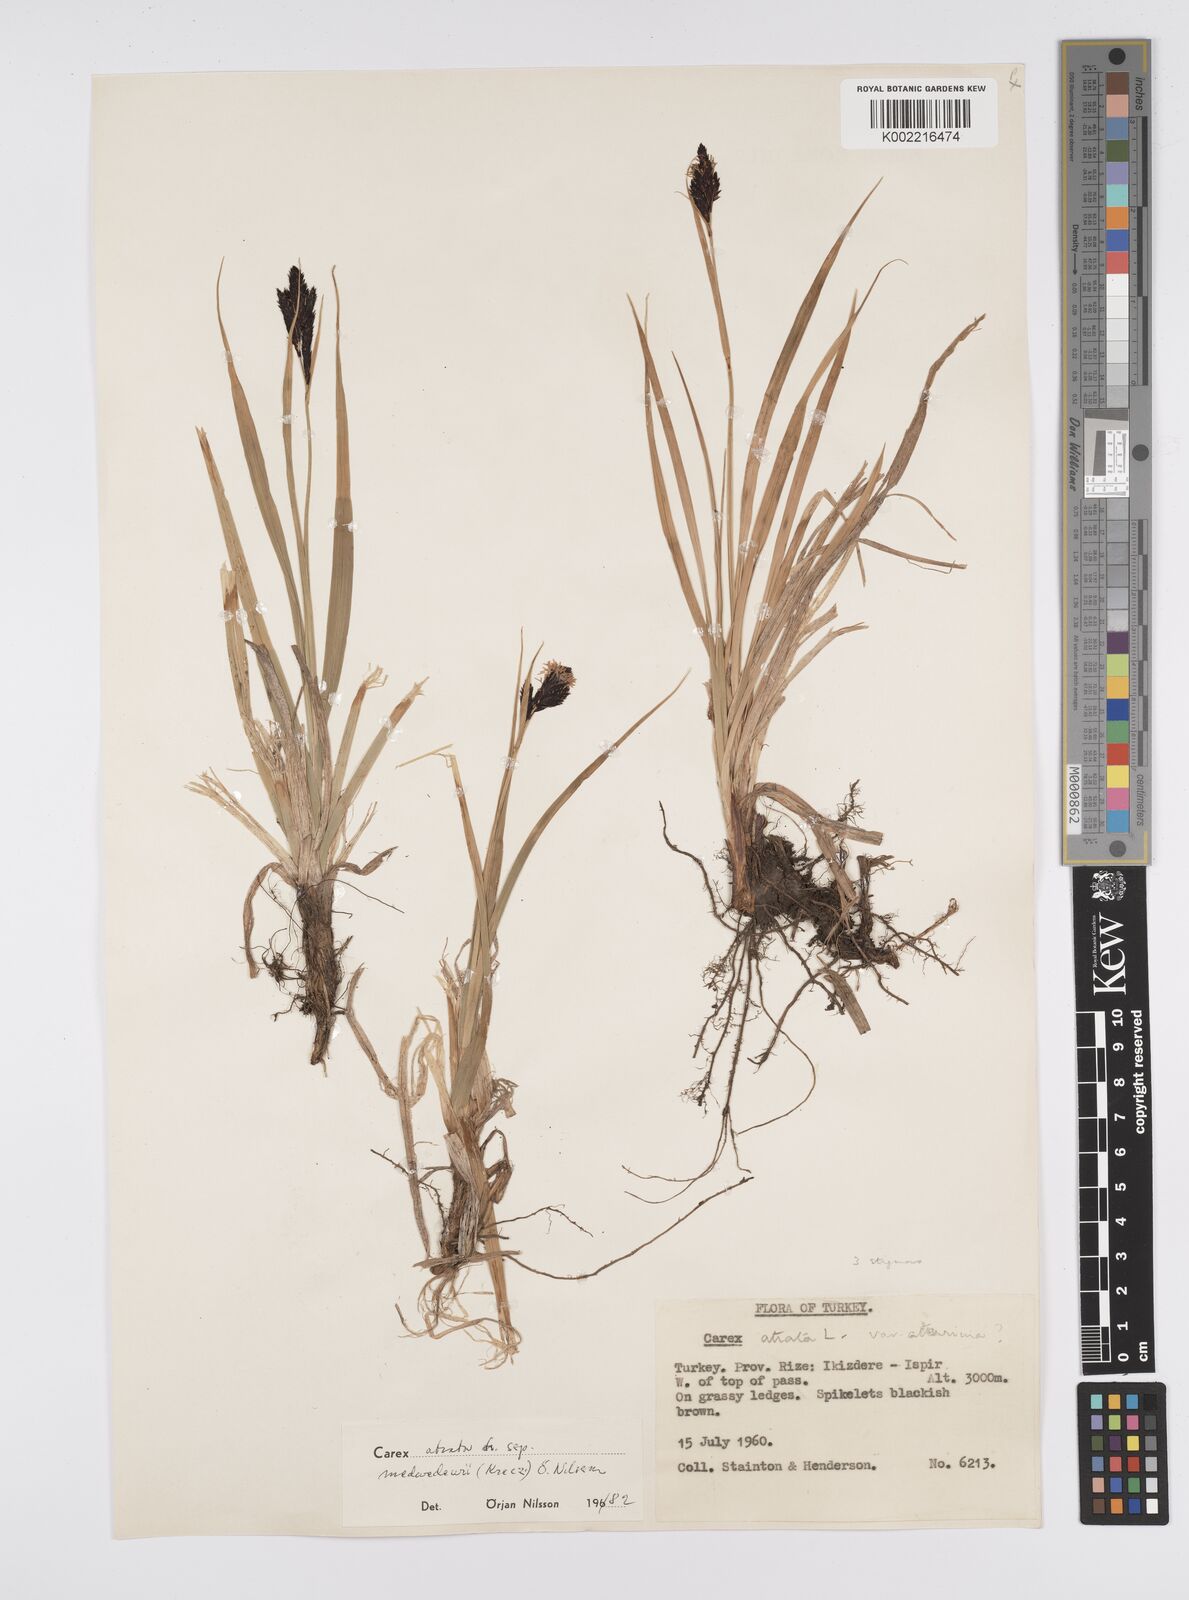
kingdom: Plantae
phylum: Tracheophyta
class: Liliopsida
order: Poales
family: Cyperaceae
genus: Carex
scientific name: Carex atrata
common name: Black alpine sedge
